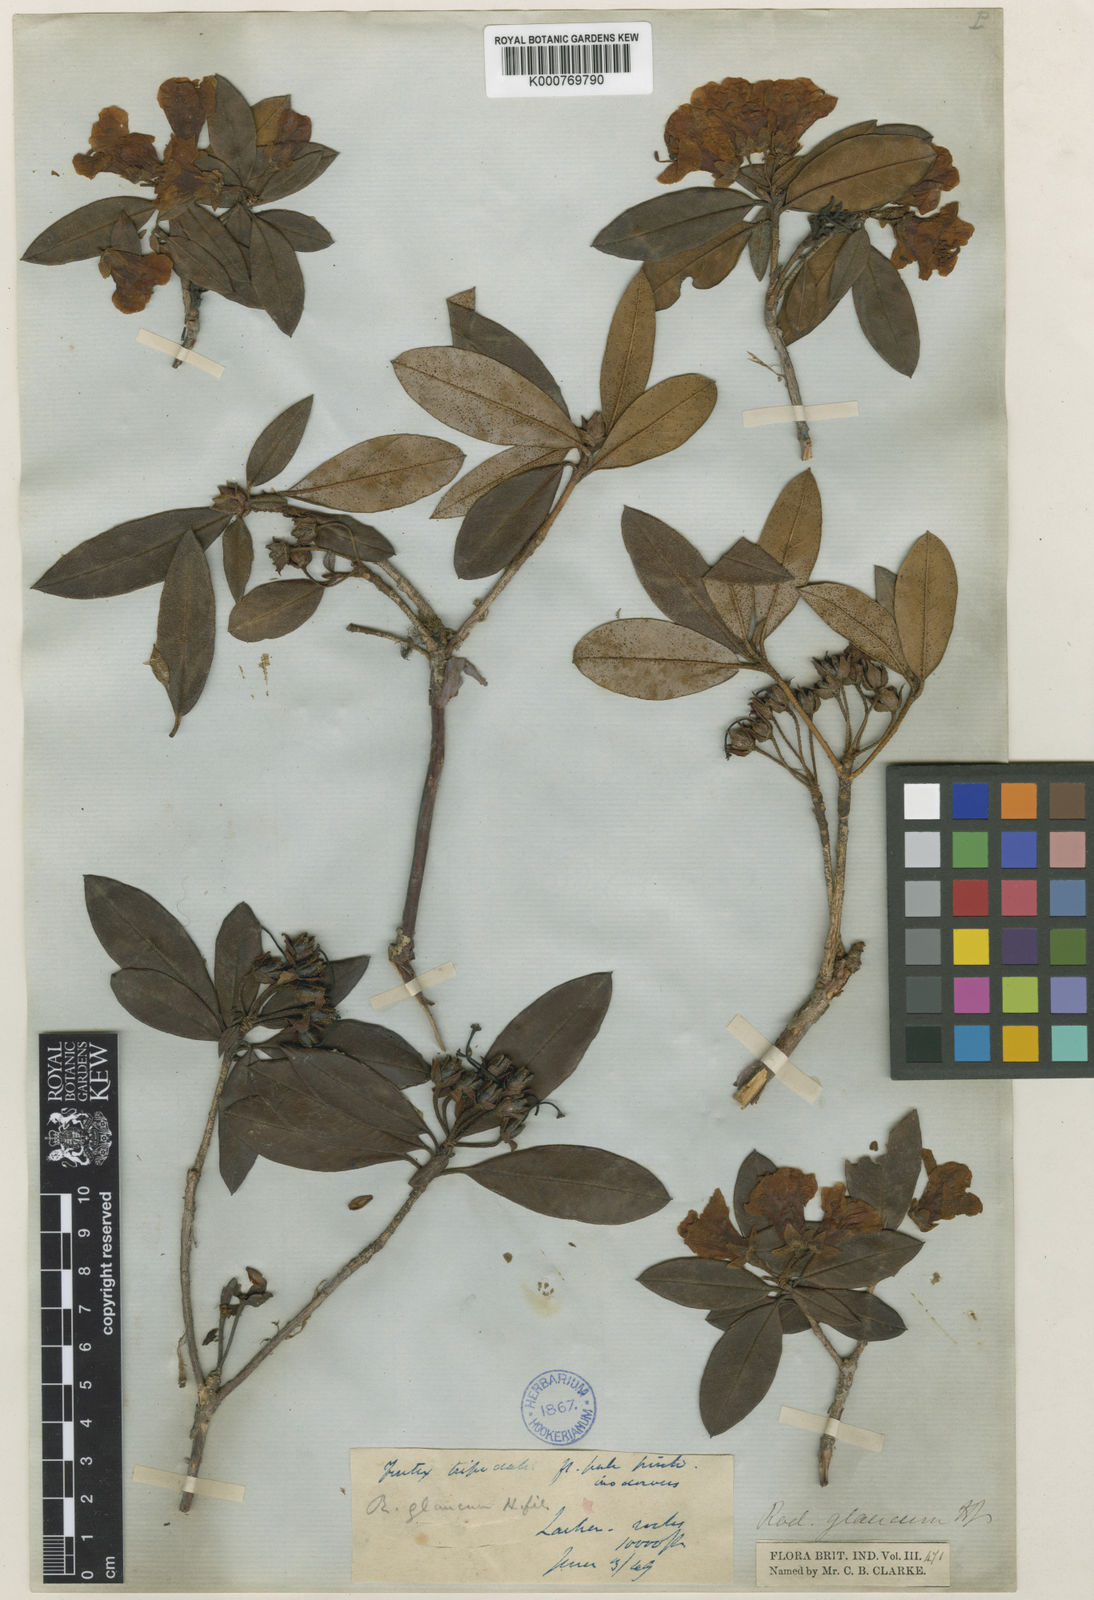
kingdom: Plantae
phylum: Tracheophyta
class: Magnoliopsida
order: Ericales
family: Ericaceae
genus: Rhododendron
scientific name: Rhododendron glaucophyllum
